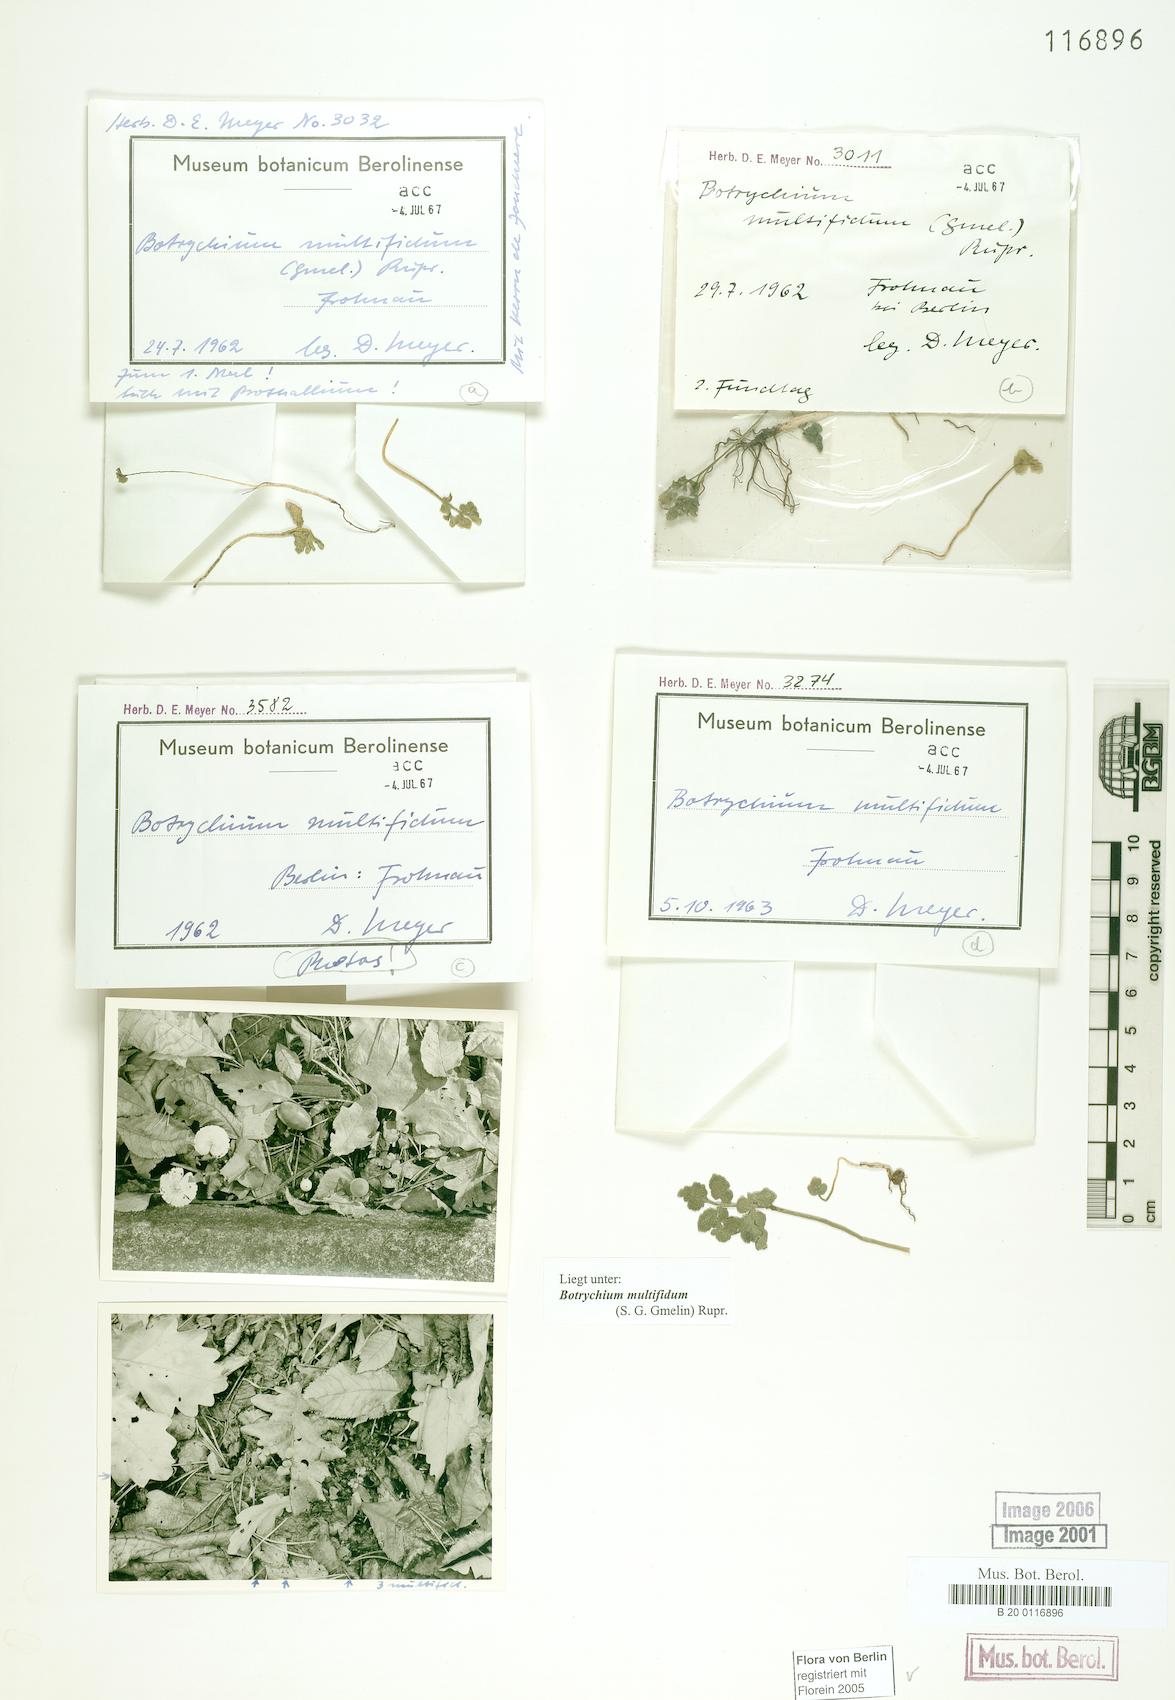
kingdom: Plantae
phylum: Tracheophyta
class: Polypodiopsida
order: Ophioglossales
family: Ophioglossaceae
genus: Sceptridium
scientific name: Sceptridium multifidum
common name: Leathery grape fern
